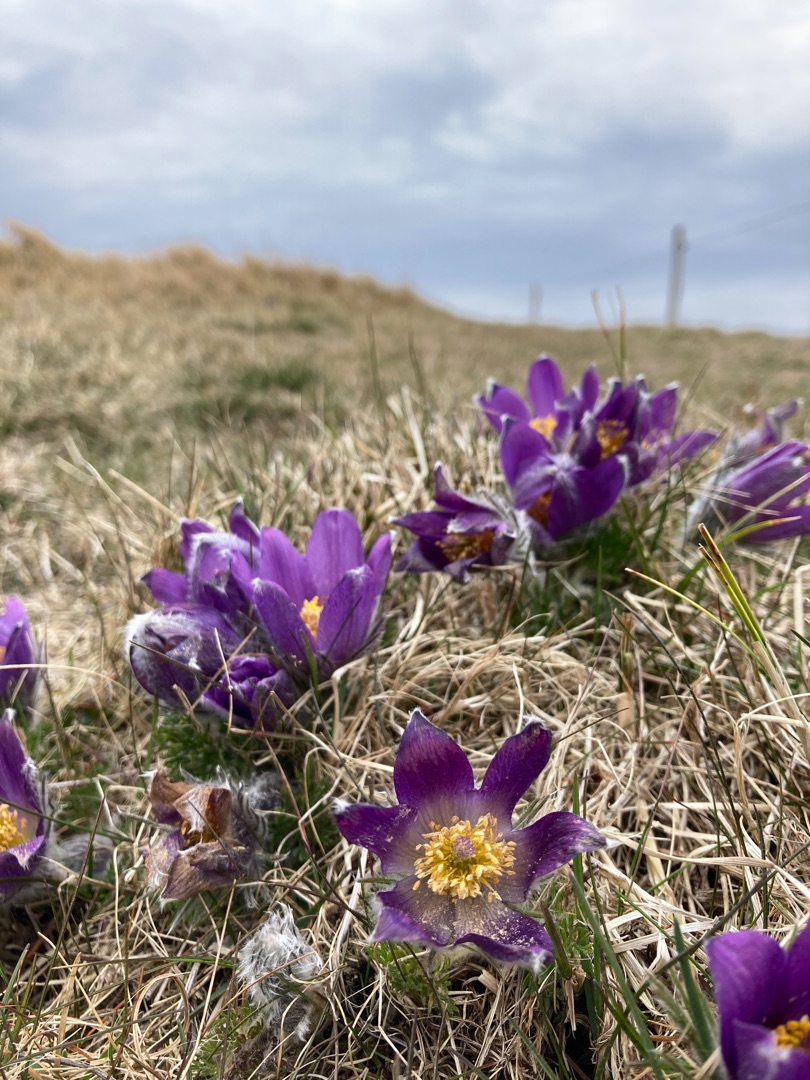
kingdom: Plantae
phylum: Tracheophyta
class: Magnoliopsida
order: Ranunculales
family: Ranunculaceae
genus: Pulsatilla
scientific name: Pulsatilla vulgaris
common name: Opret kobjælde
